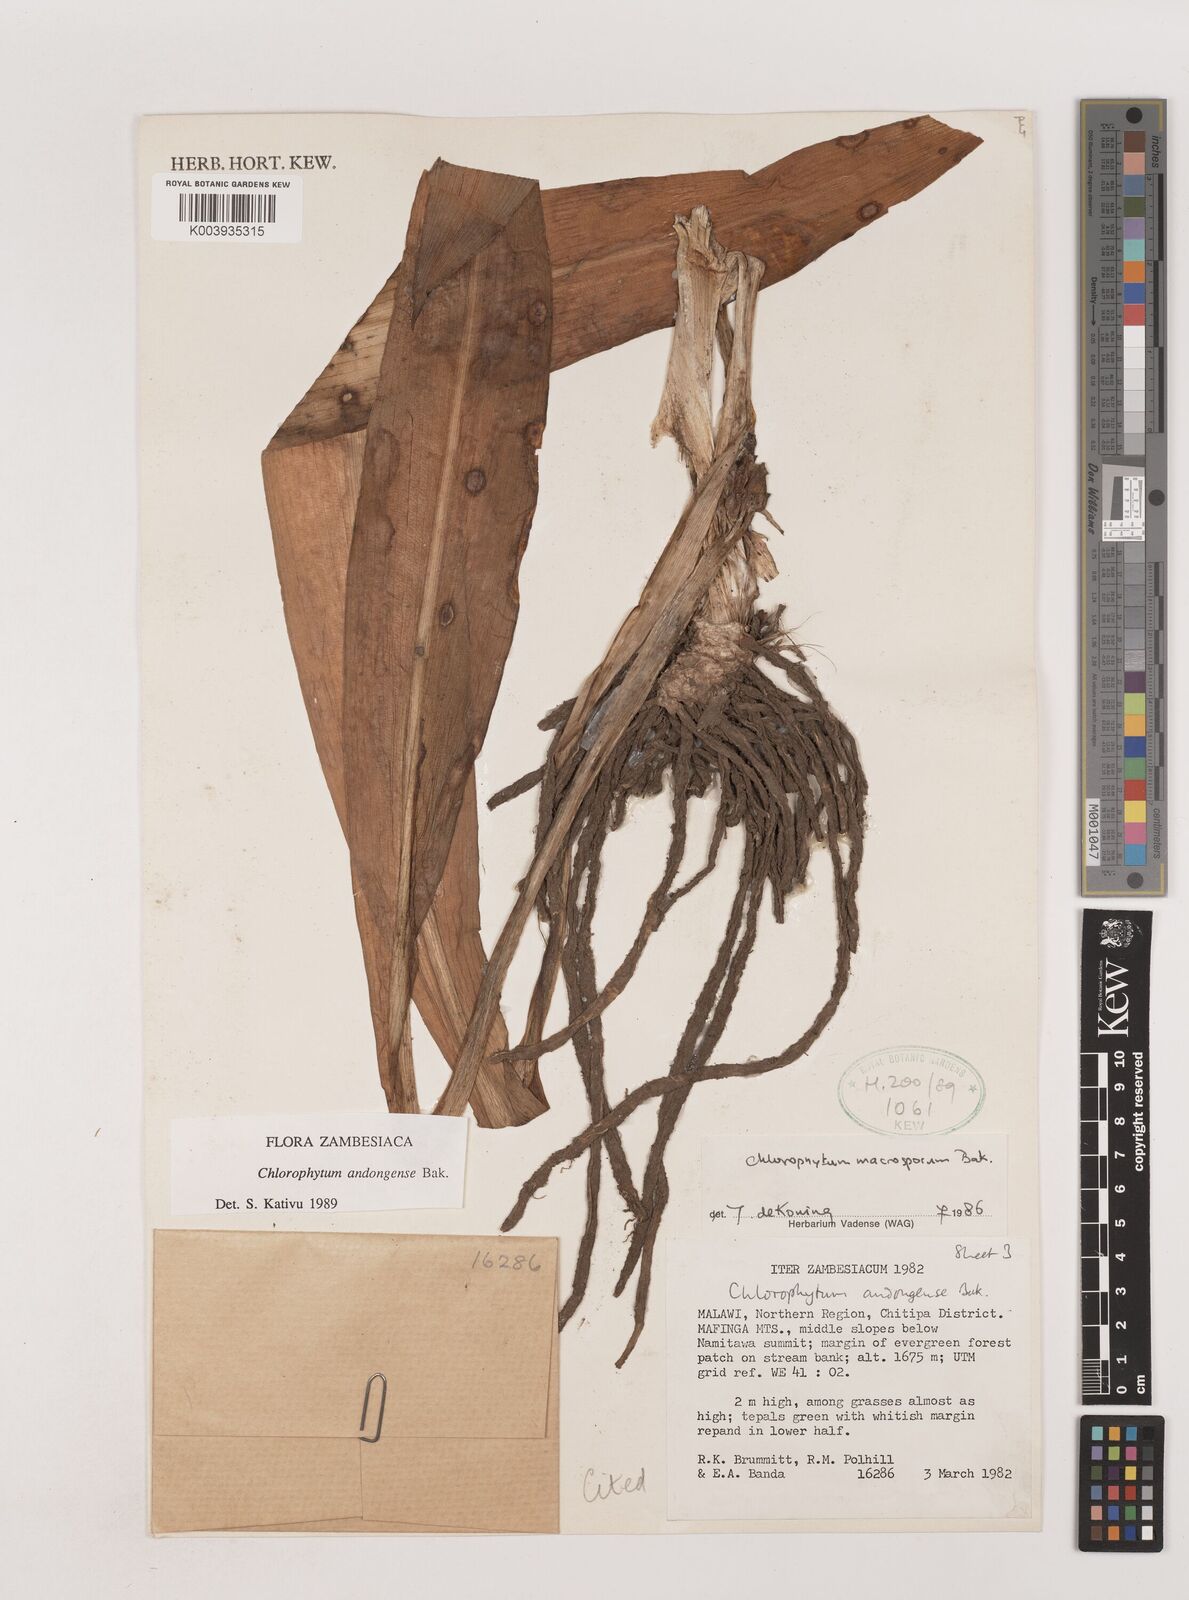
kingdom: Plantae
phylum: Tracheophyta
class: Liliopsida
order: Asparagales
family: Asparagaceae
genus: Chlorophytum
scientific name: Chlorophytum andongense
